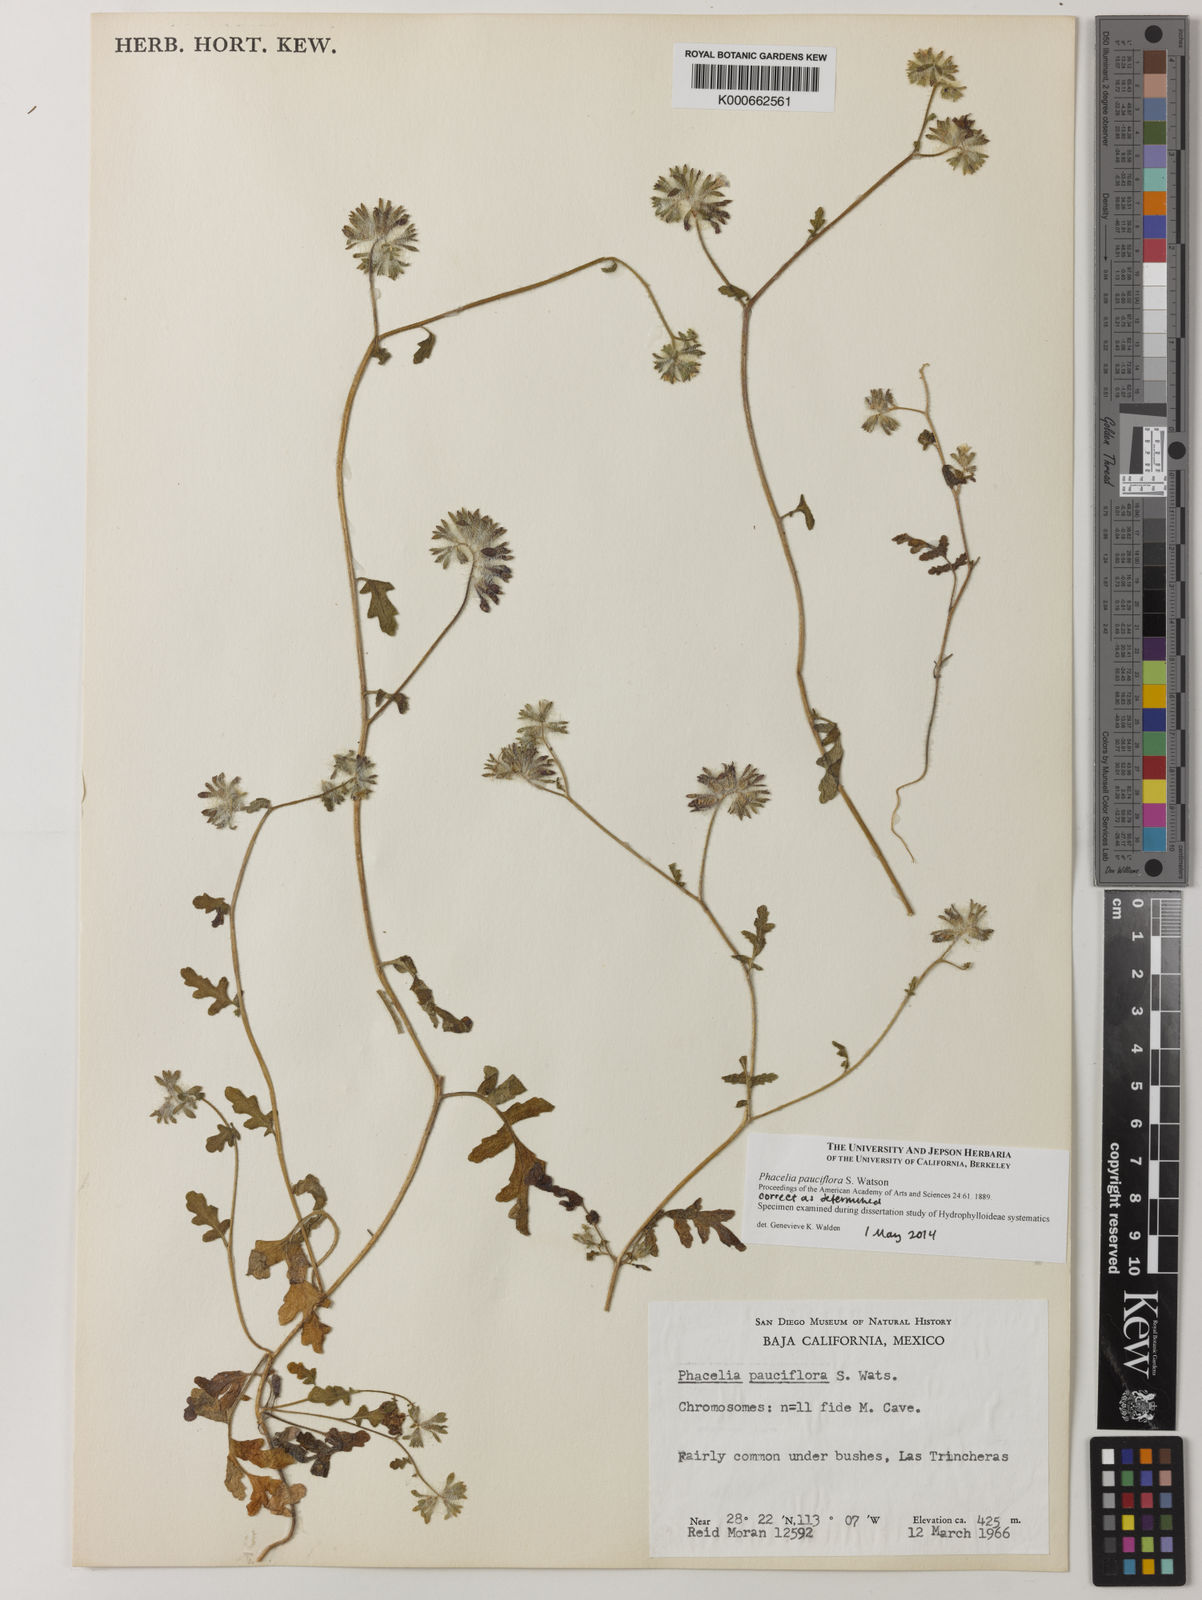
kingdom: Plantae
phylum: Tracheophyta
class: Magnoliopsida
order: Boraginales
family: Hydrophyllaceae
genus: Phacelia
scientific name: Phacelia pauciflora
